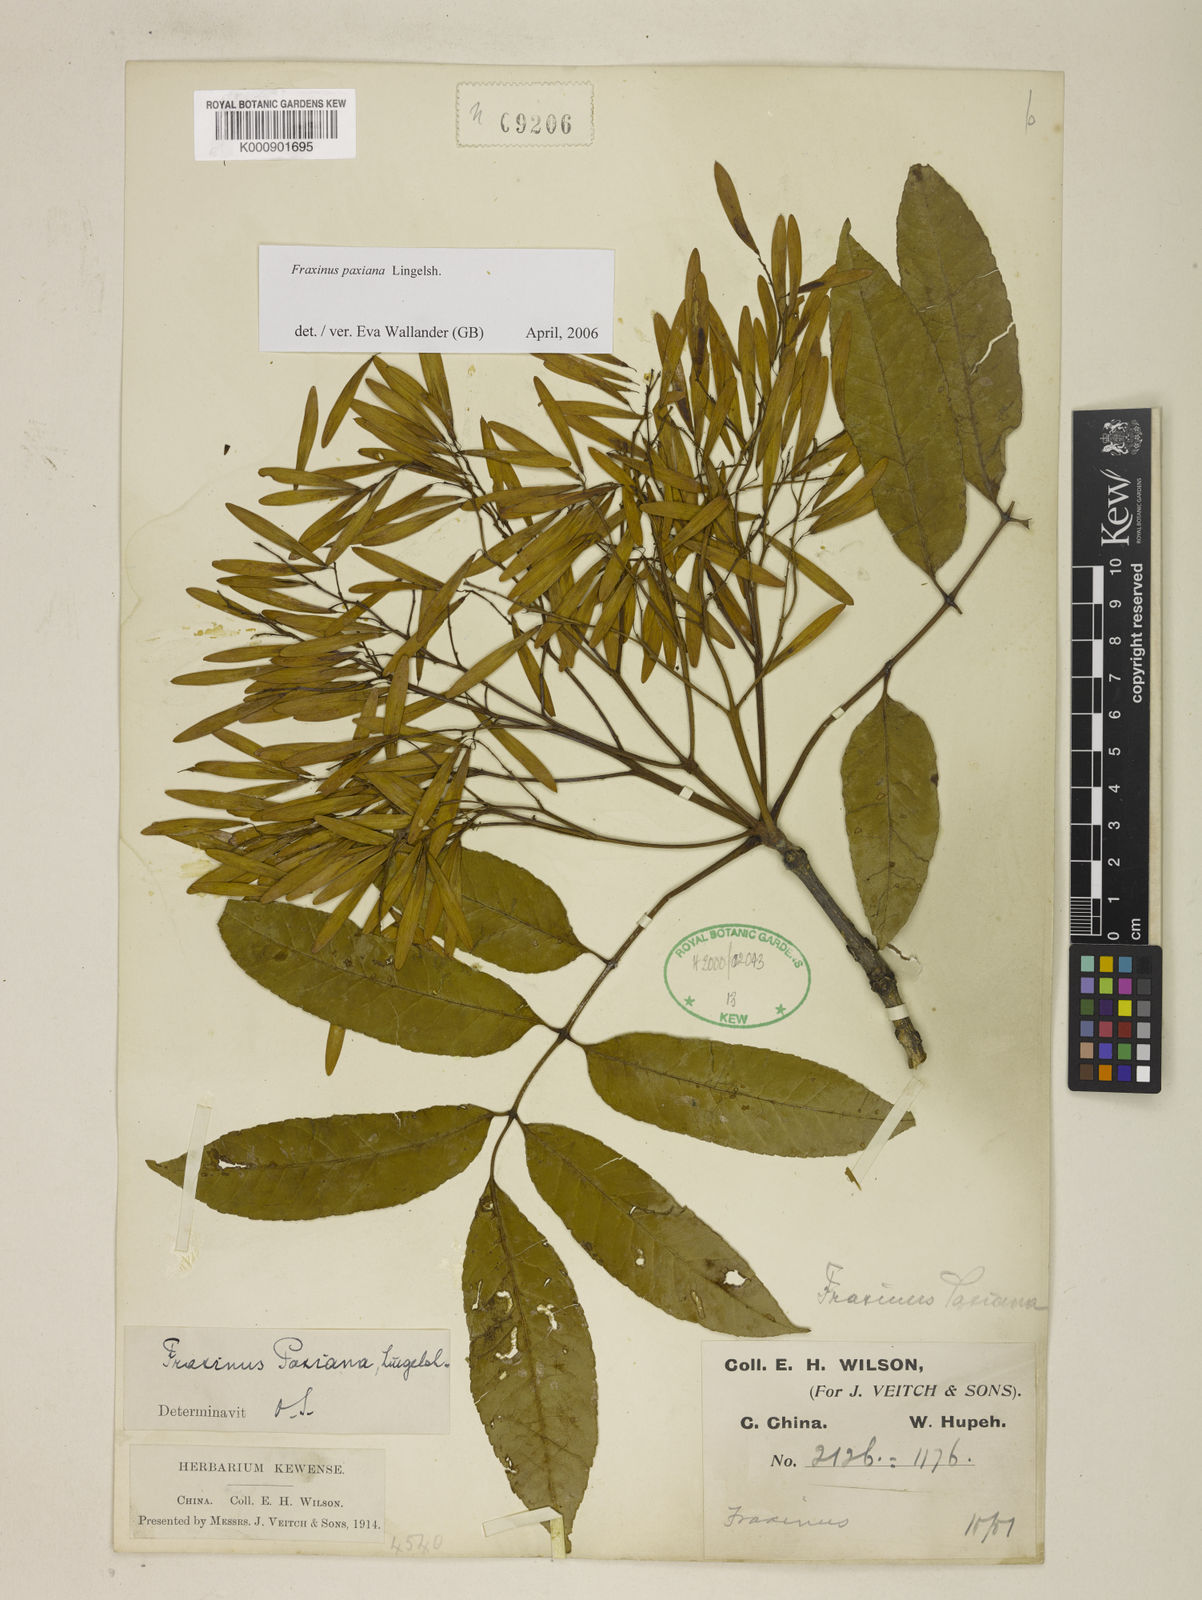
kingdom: Plantae
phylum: Tracheophyta
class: Magnoliopsida
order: Lamiales
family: Oleaceae
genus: Fraxinus
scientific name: Fraxinus paxiana
